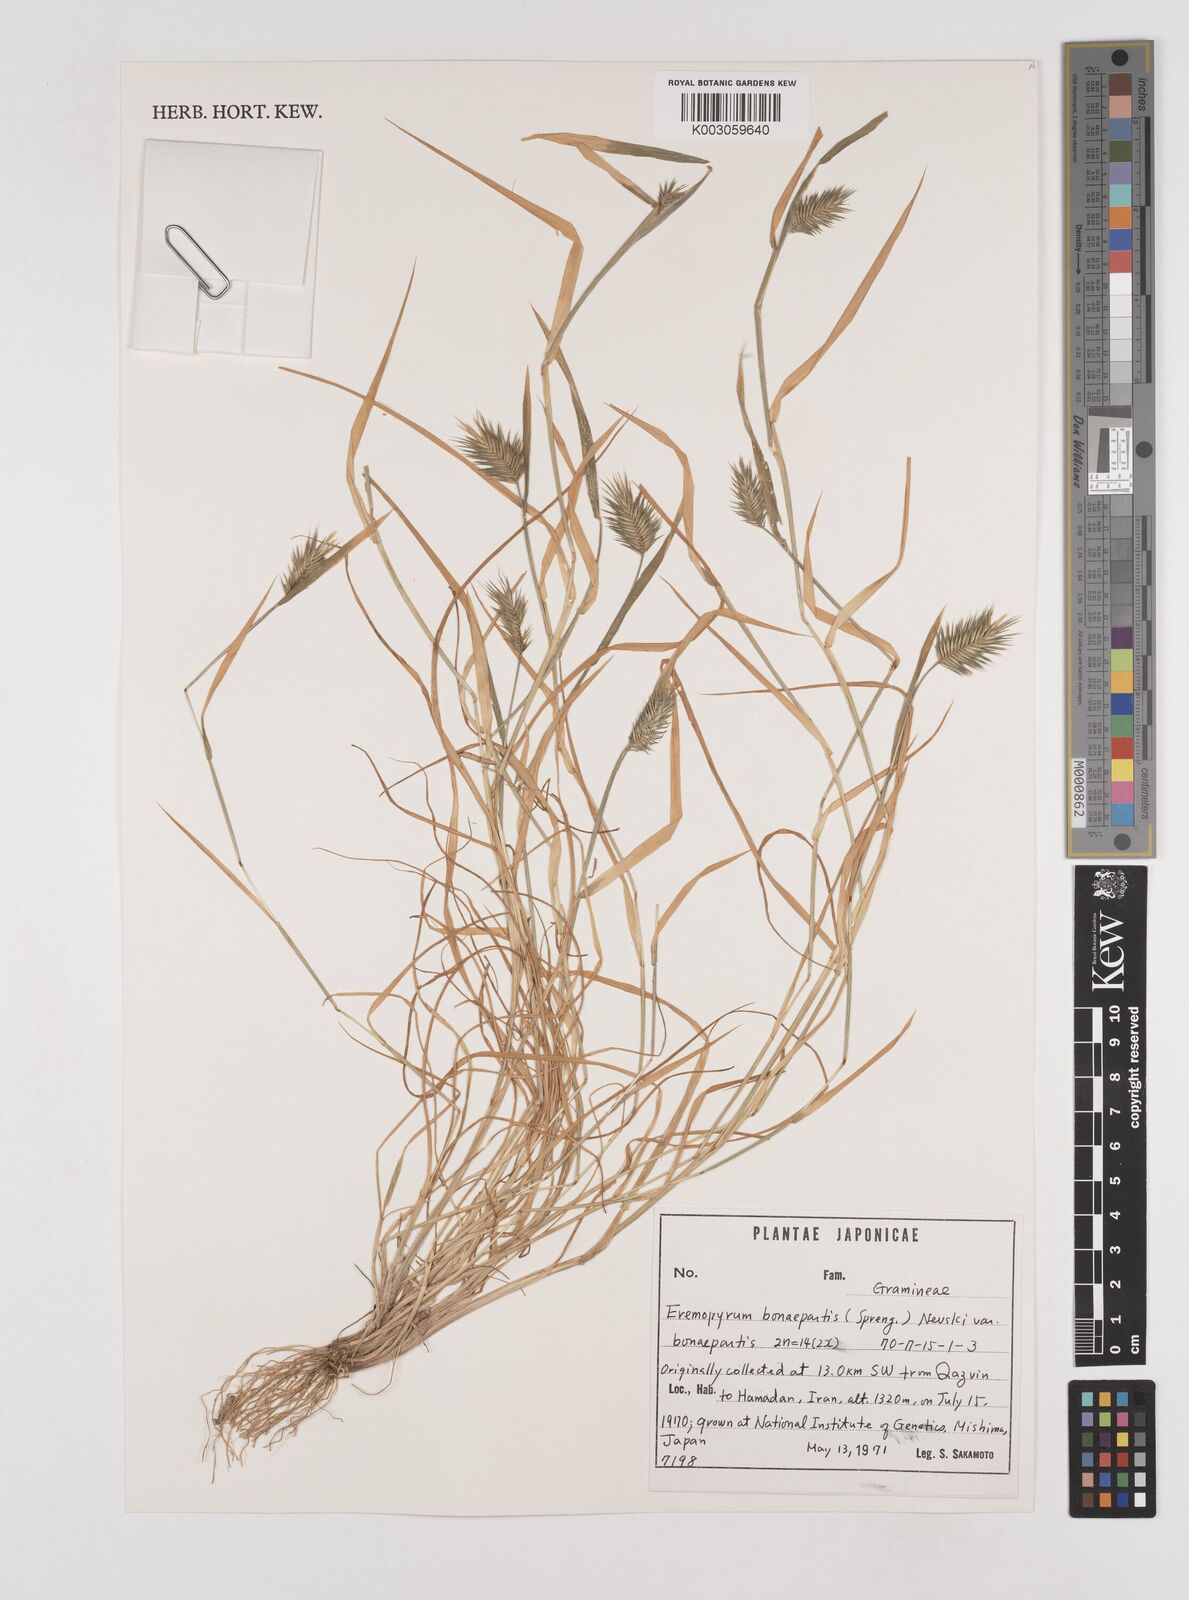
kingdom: Plantae
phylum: Tracheophyta
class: Liliopsida
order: Poales
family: Poaceae
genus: Eremopyrum
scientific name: Eremopyrum bonaepartis
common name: Tapertip false wheatgrass
